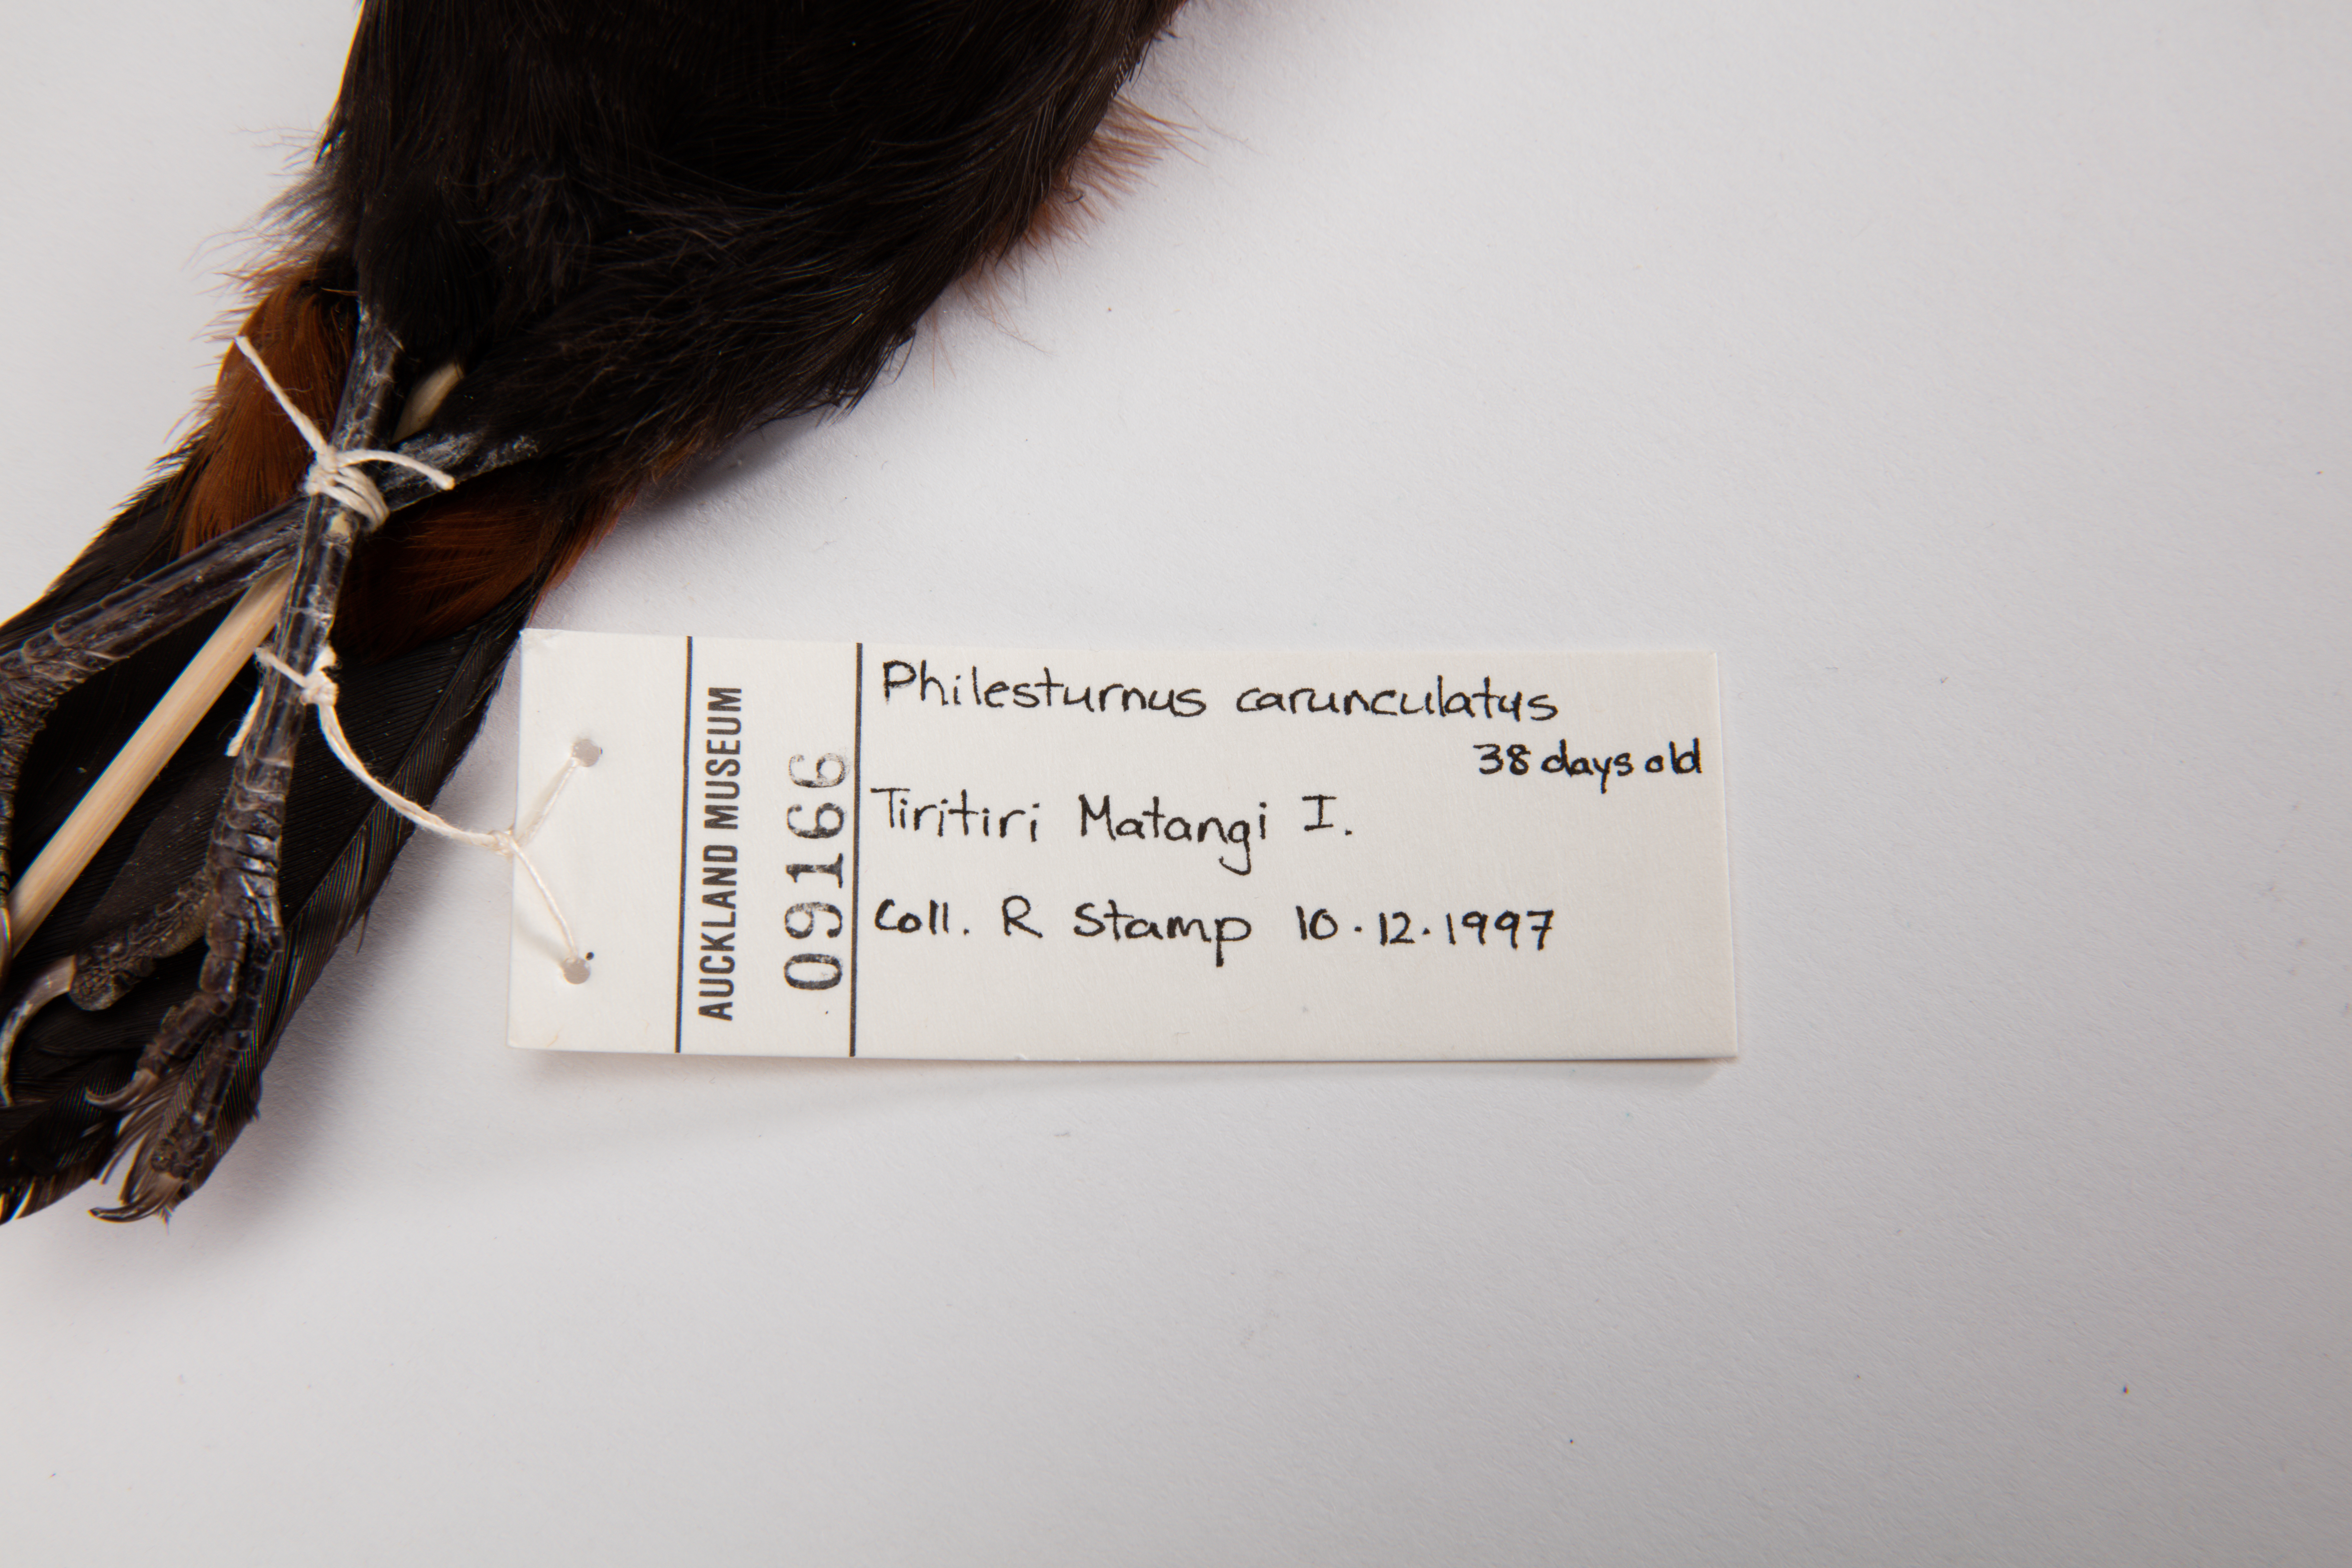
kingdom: Animalia
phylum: Chordata
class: Aves
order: Passeriformes
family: Callaeatidae
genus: Philesturnus
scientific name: Philesturnus carunculatus
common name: South island saddleback
